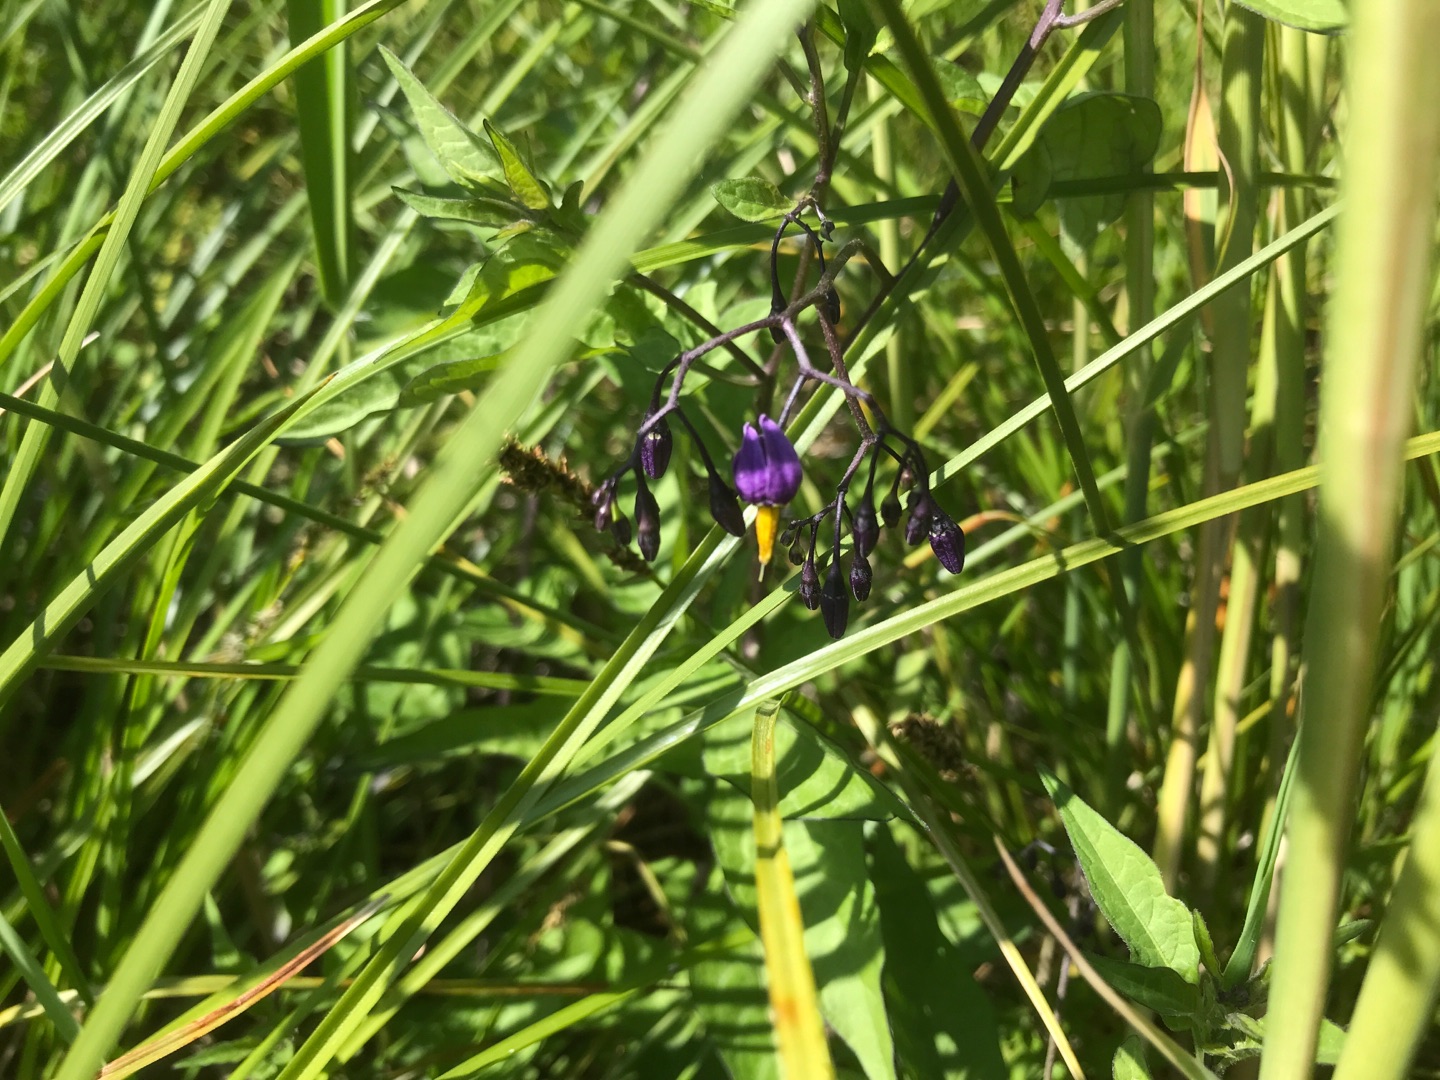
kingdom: Plantae
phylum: Tracheophyta
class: Magnoliopsida
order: Solanales
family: Solanaceae
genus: Solanum
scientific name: Solanum dulcamara
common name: Bittersød natskygge
